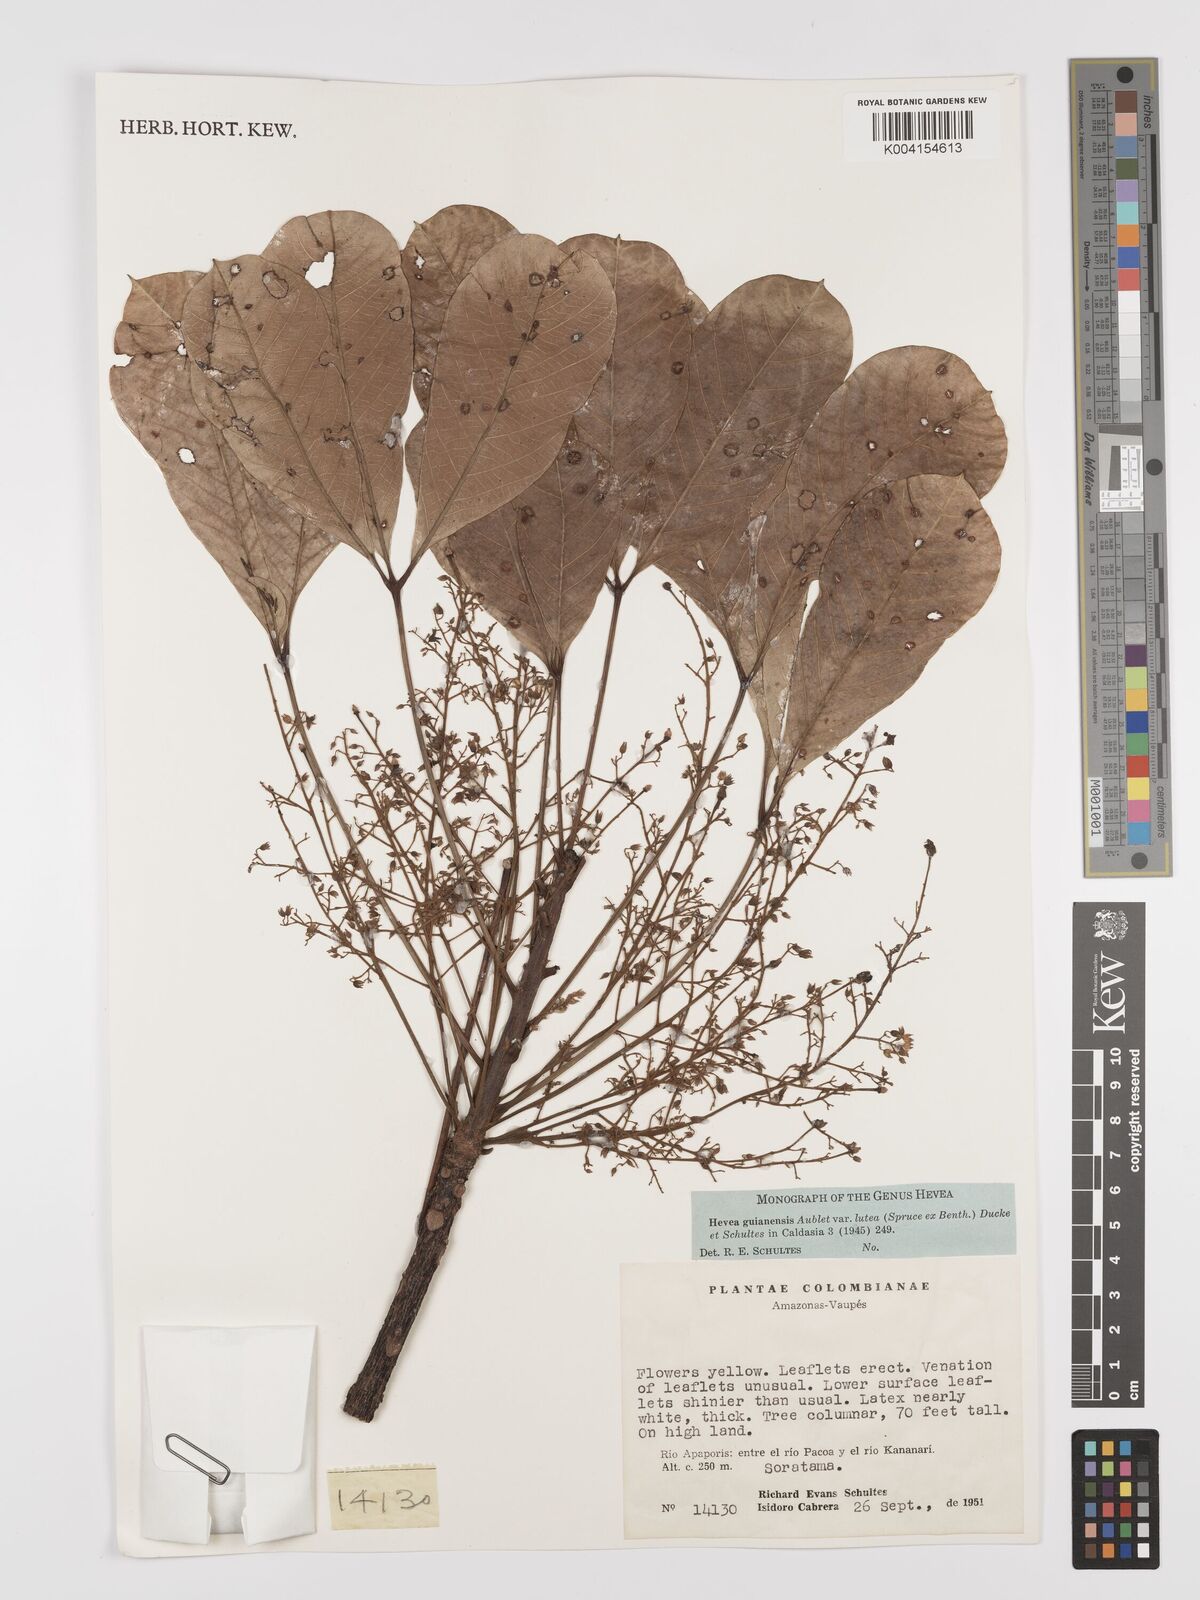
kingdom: Plantae
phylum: Tracheophyta
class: Magnoliopsida
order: Malpighiales
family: Euphorbiaceae
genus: Hevea
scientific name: Hevea guianensis
